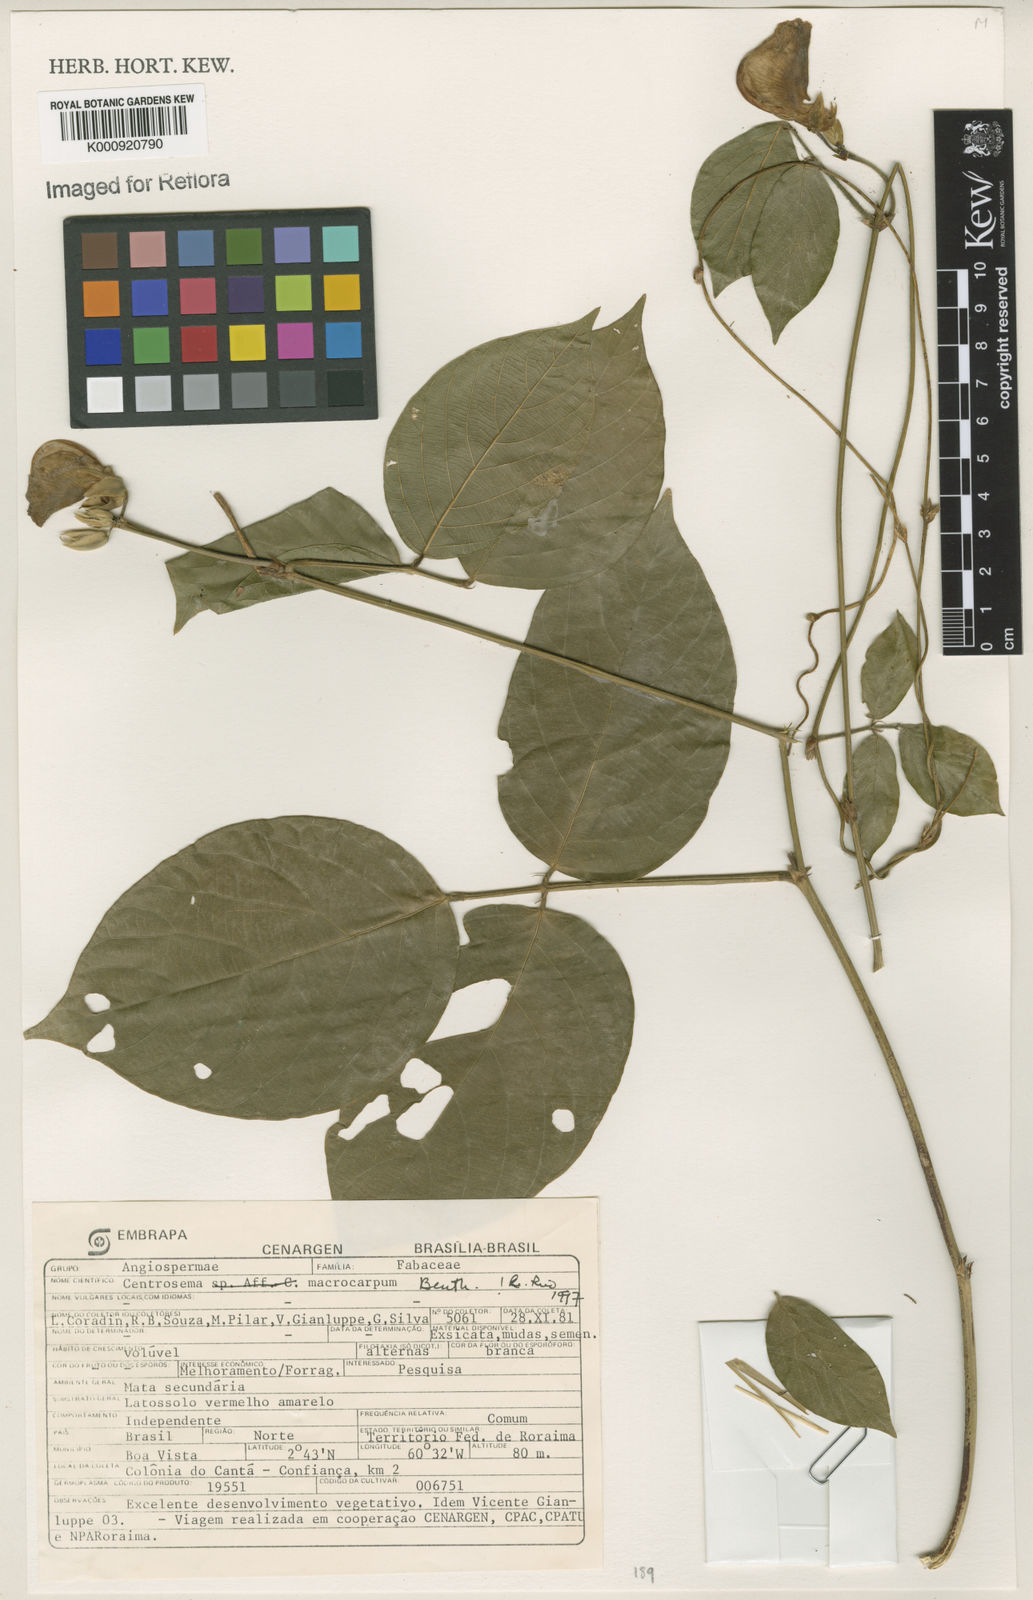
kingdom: Plantae
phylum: Tracheophyta
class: Magnoliopsida
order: Fabales
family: Fabaceae
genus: Centrosema
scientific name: Centrosema macrocarpum
